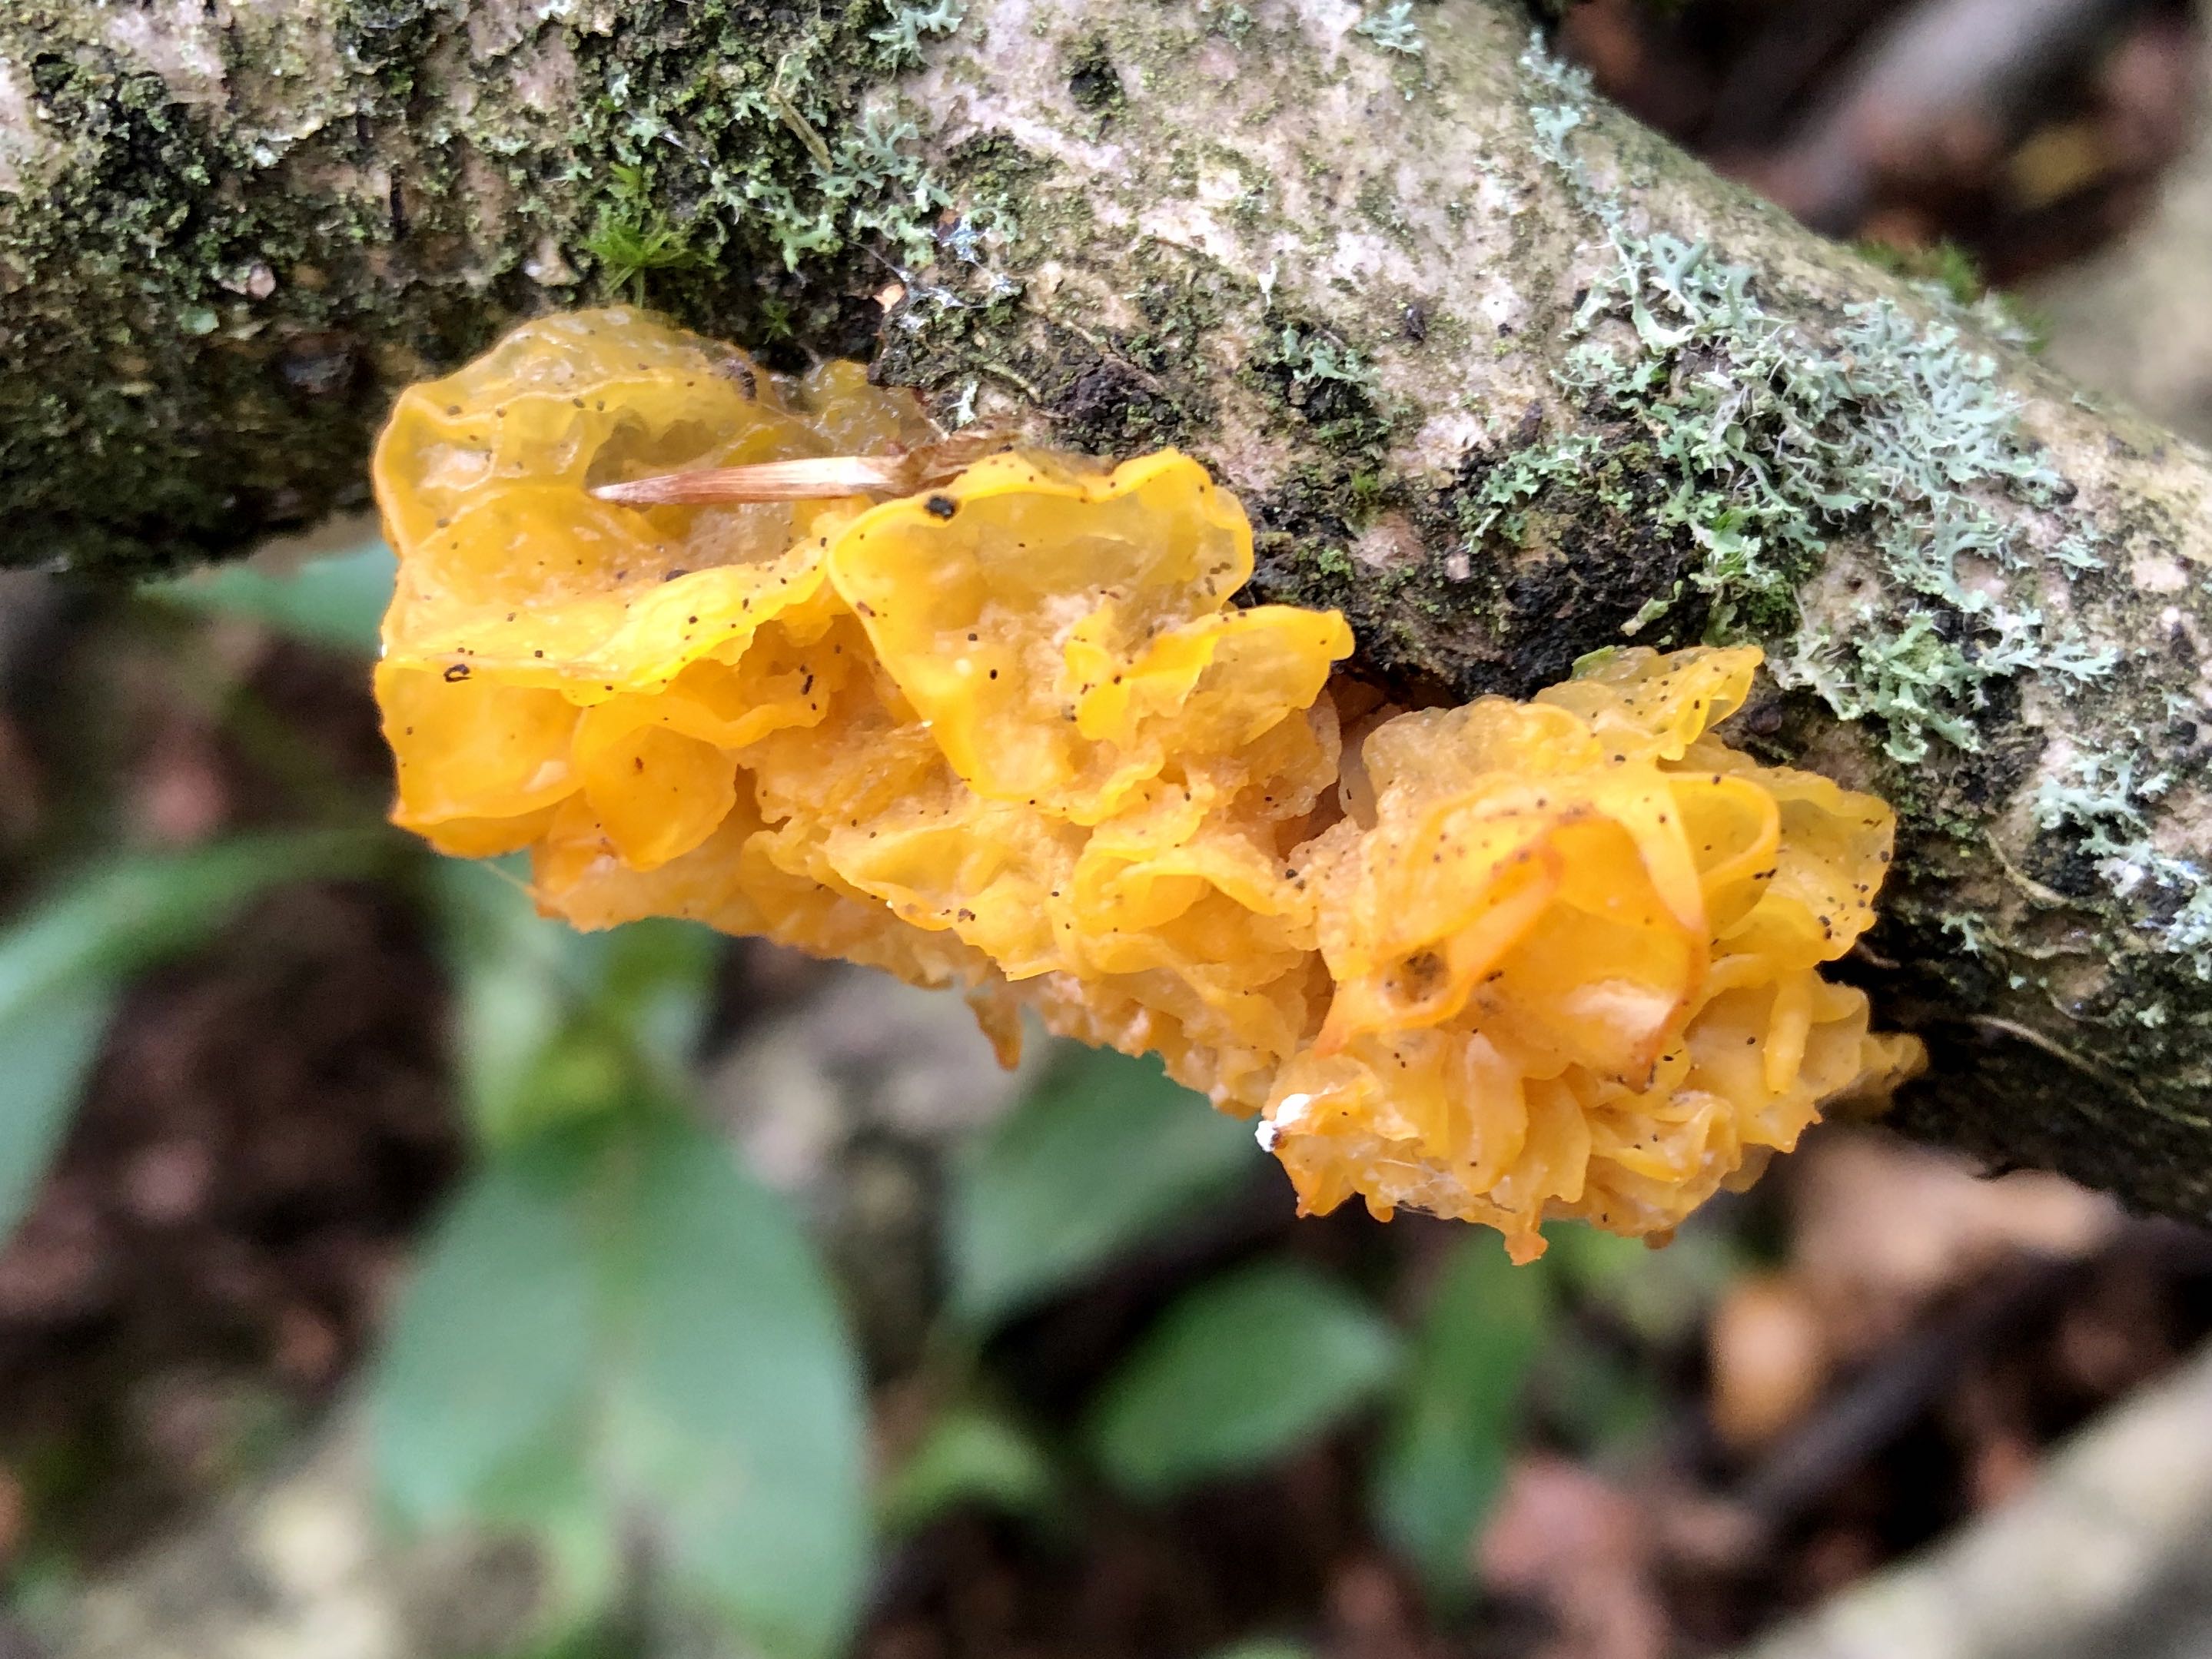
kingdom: Fungi
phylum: Basidiomycota
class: Tremellomycetes
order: Tremellales
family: Tremellaceae
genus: Tremella
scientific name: Tremella mesenterica
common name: gul bævresvamp
